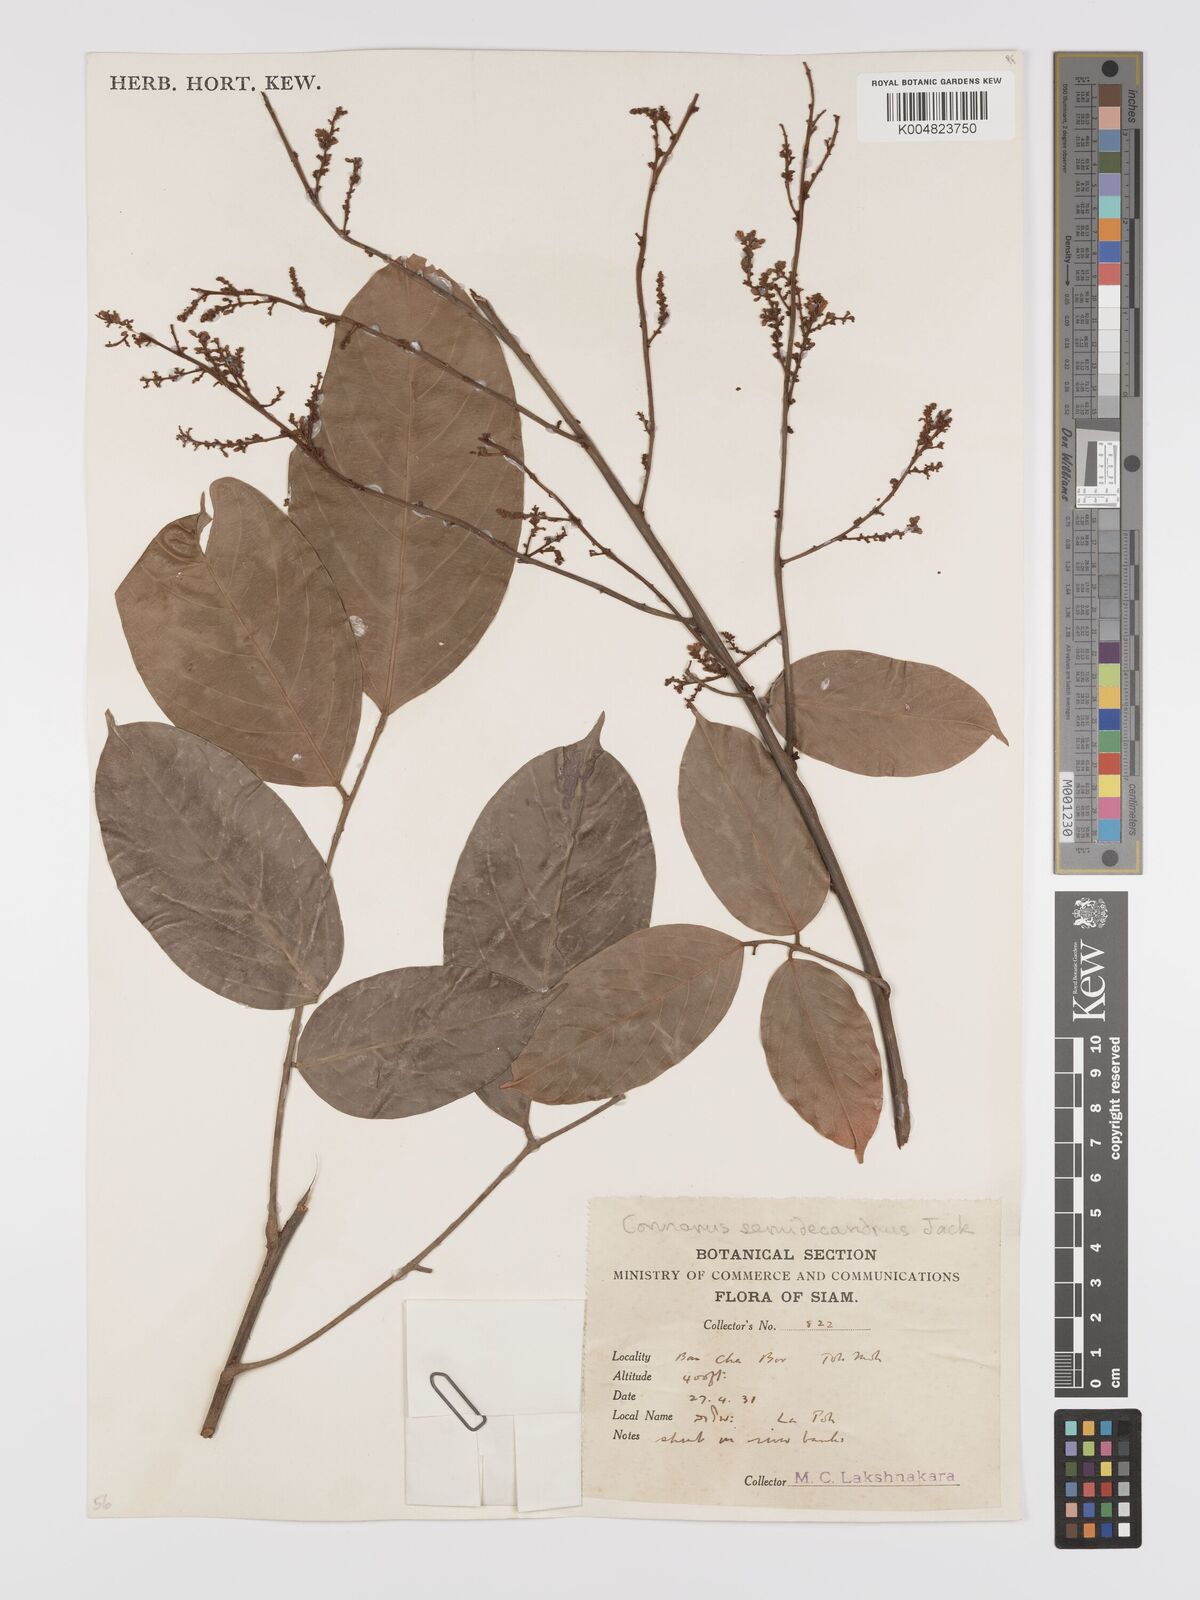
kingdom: Plantae
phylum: Tracheophyta
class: Magnoliopsida
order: Oxalidales
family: Connaraceae
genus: Connarus
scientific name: Connarus semidecandrus
